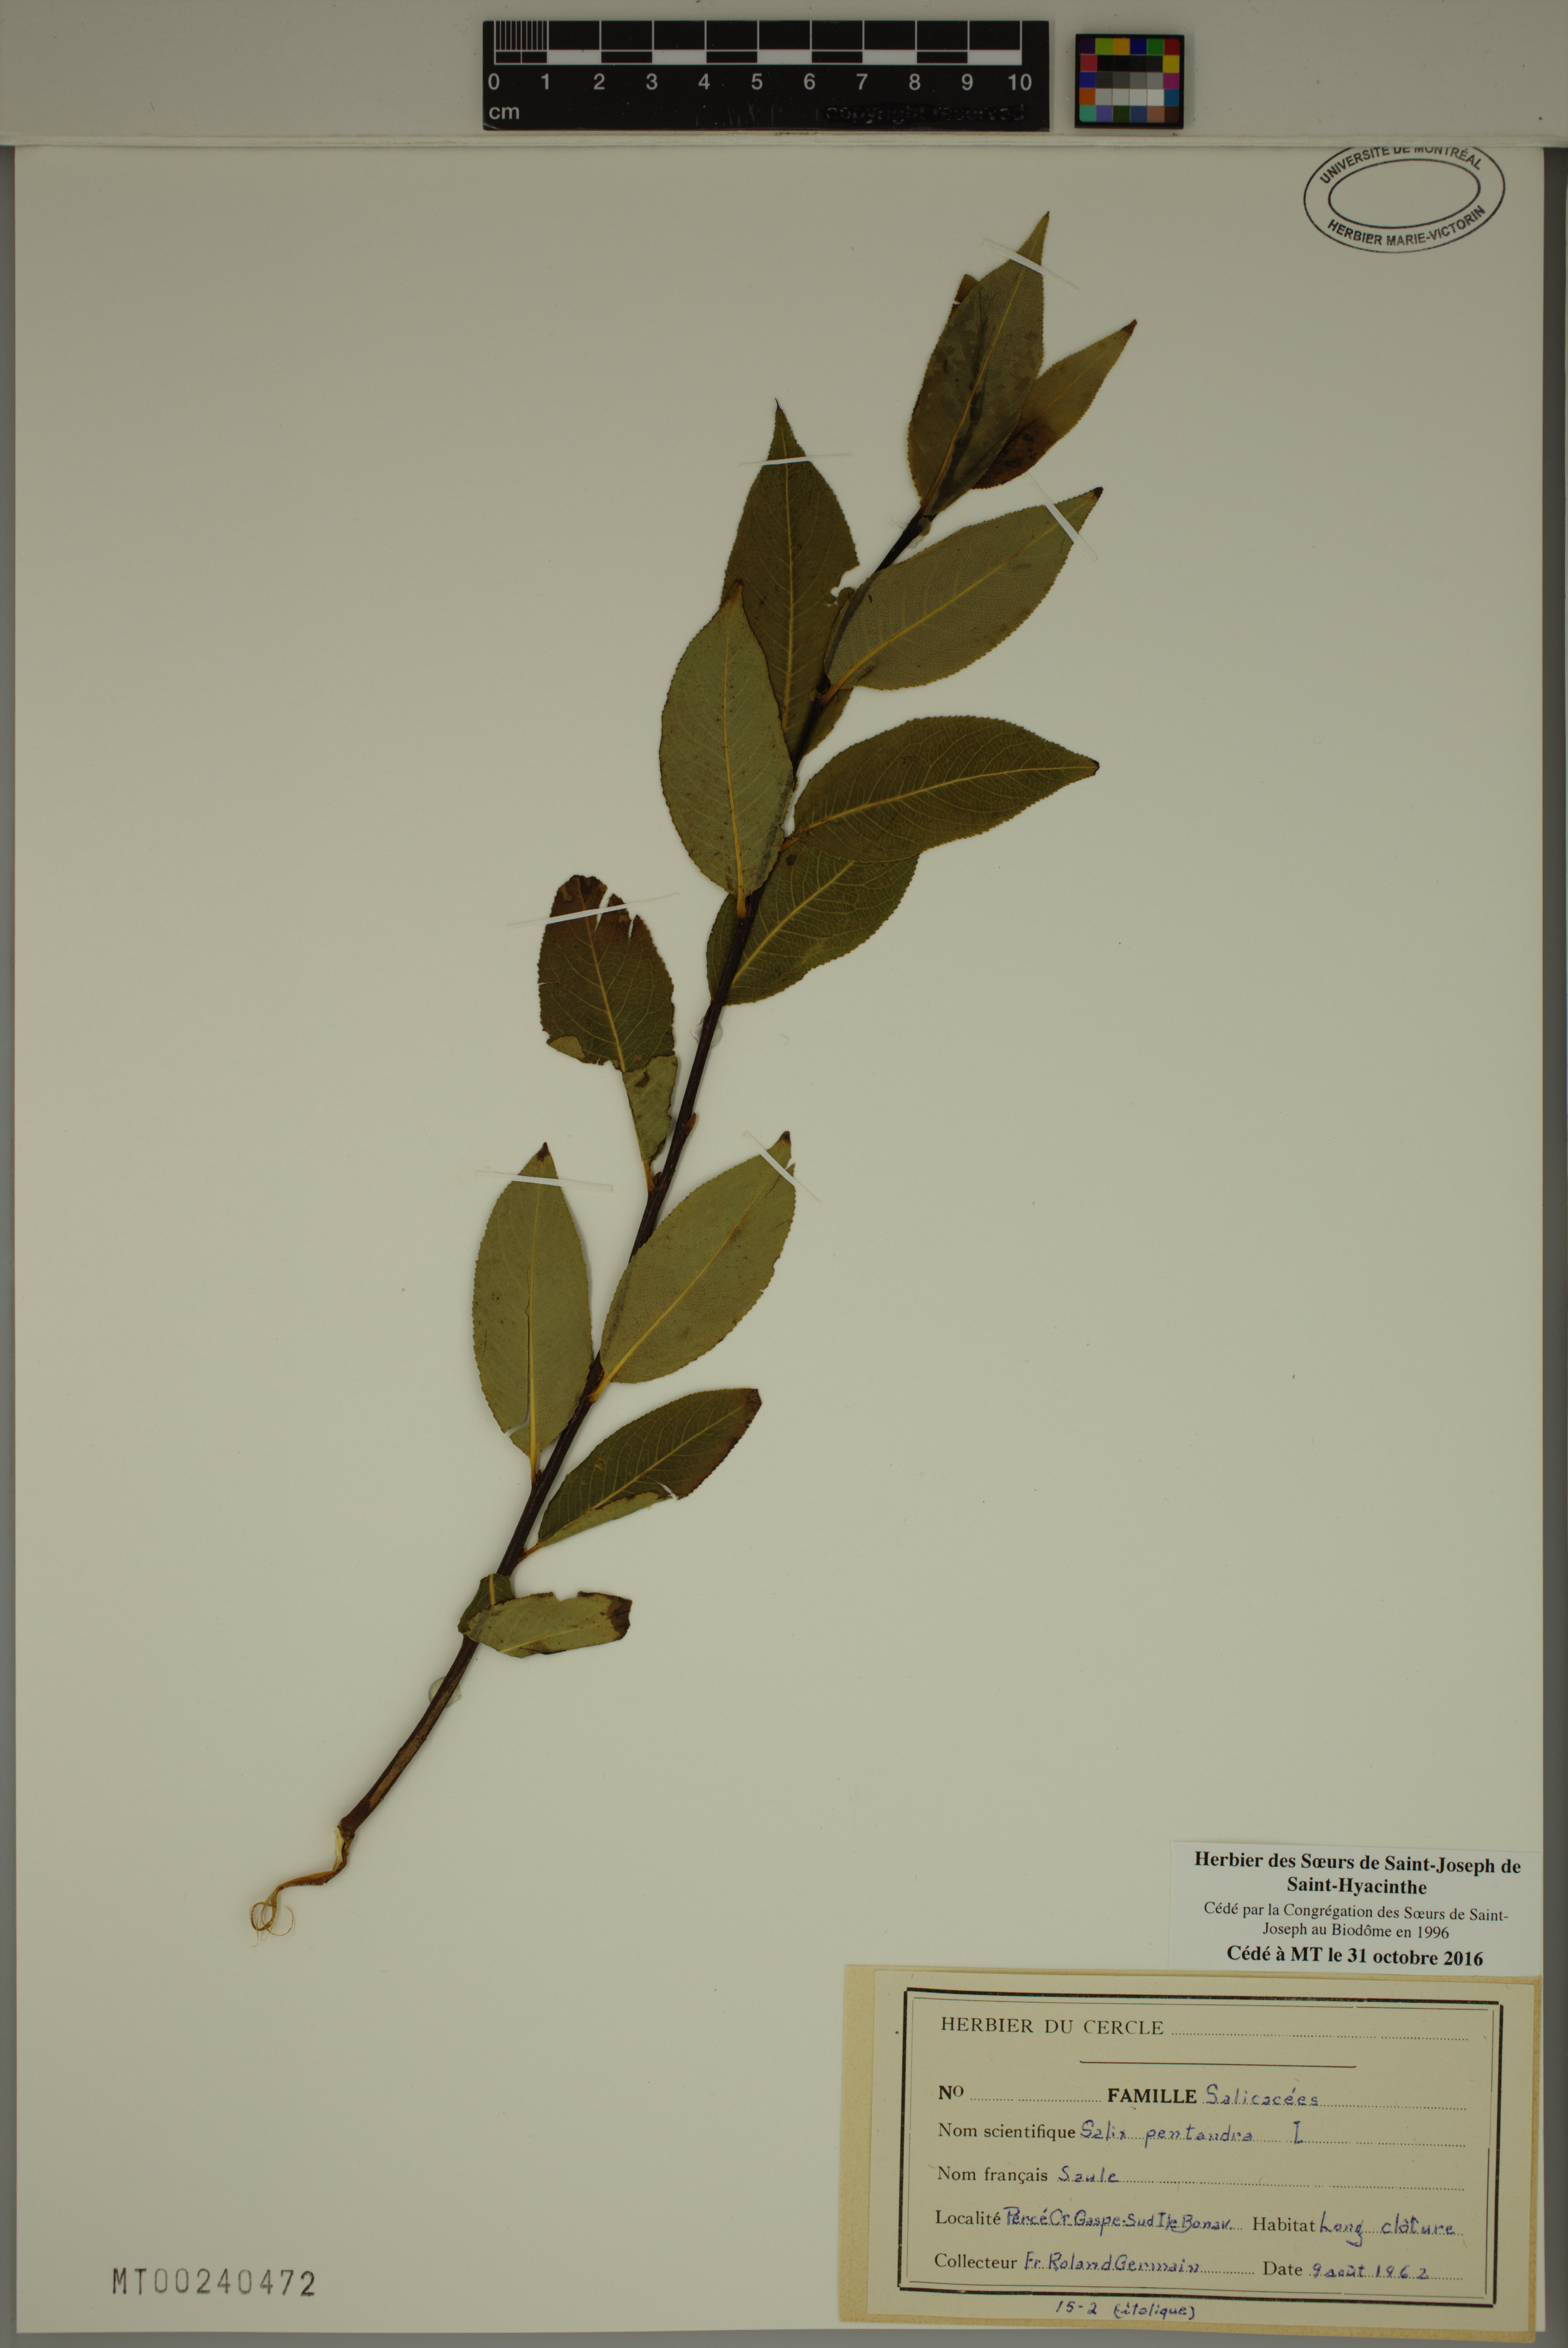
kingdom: Plantae
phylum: Tracheophyta
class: Magnoliopsida
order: Malpighiales
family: Salicaceae
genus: Salix
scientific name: Salix pentandra
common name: Bay willow
